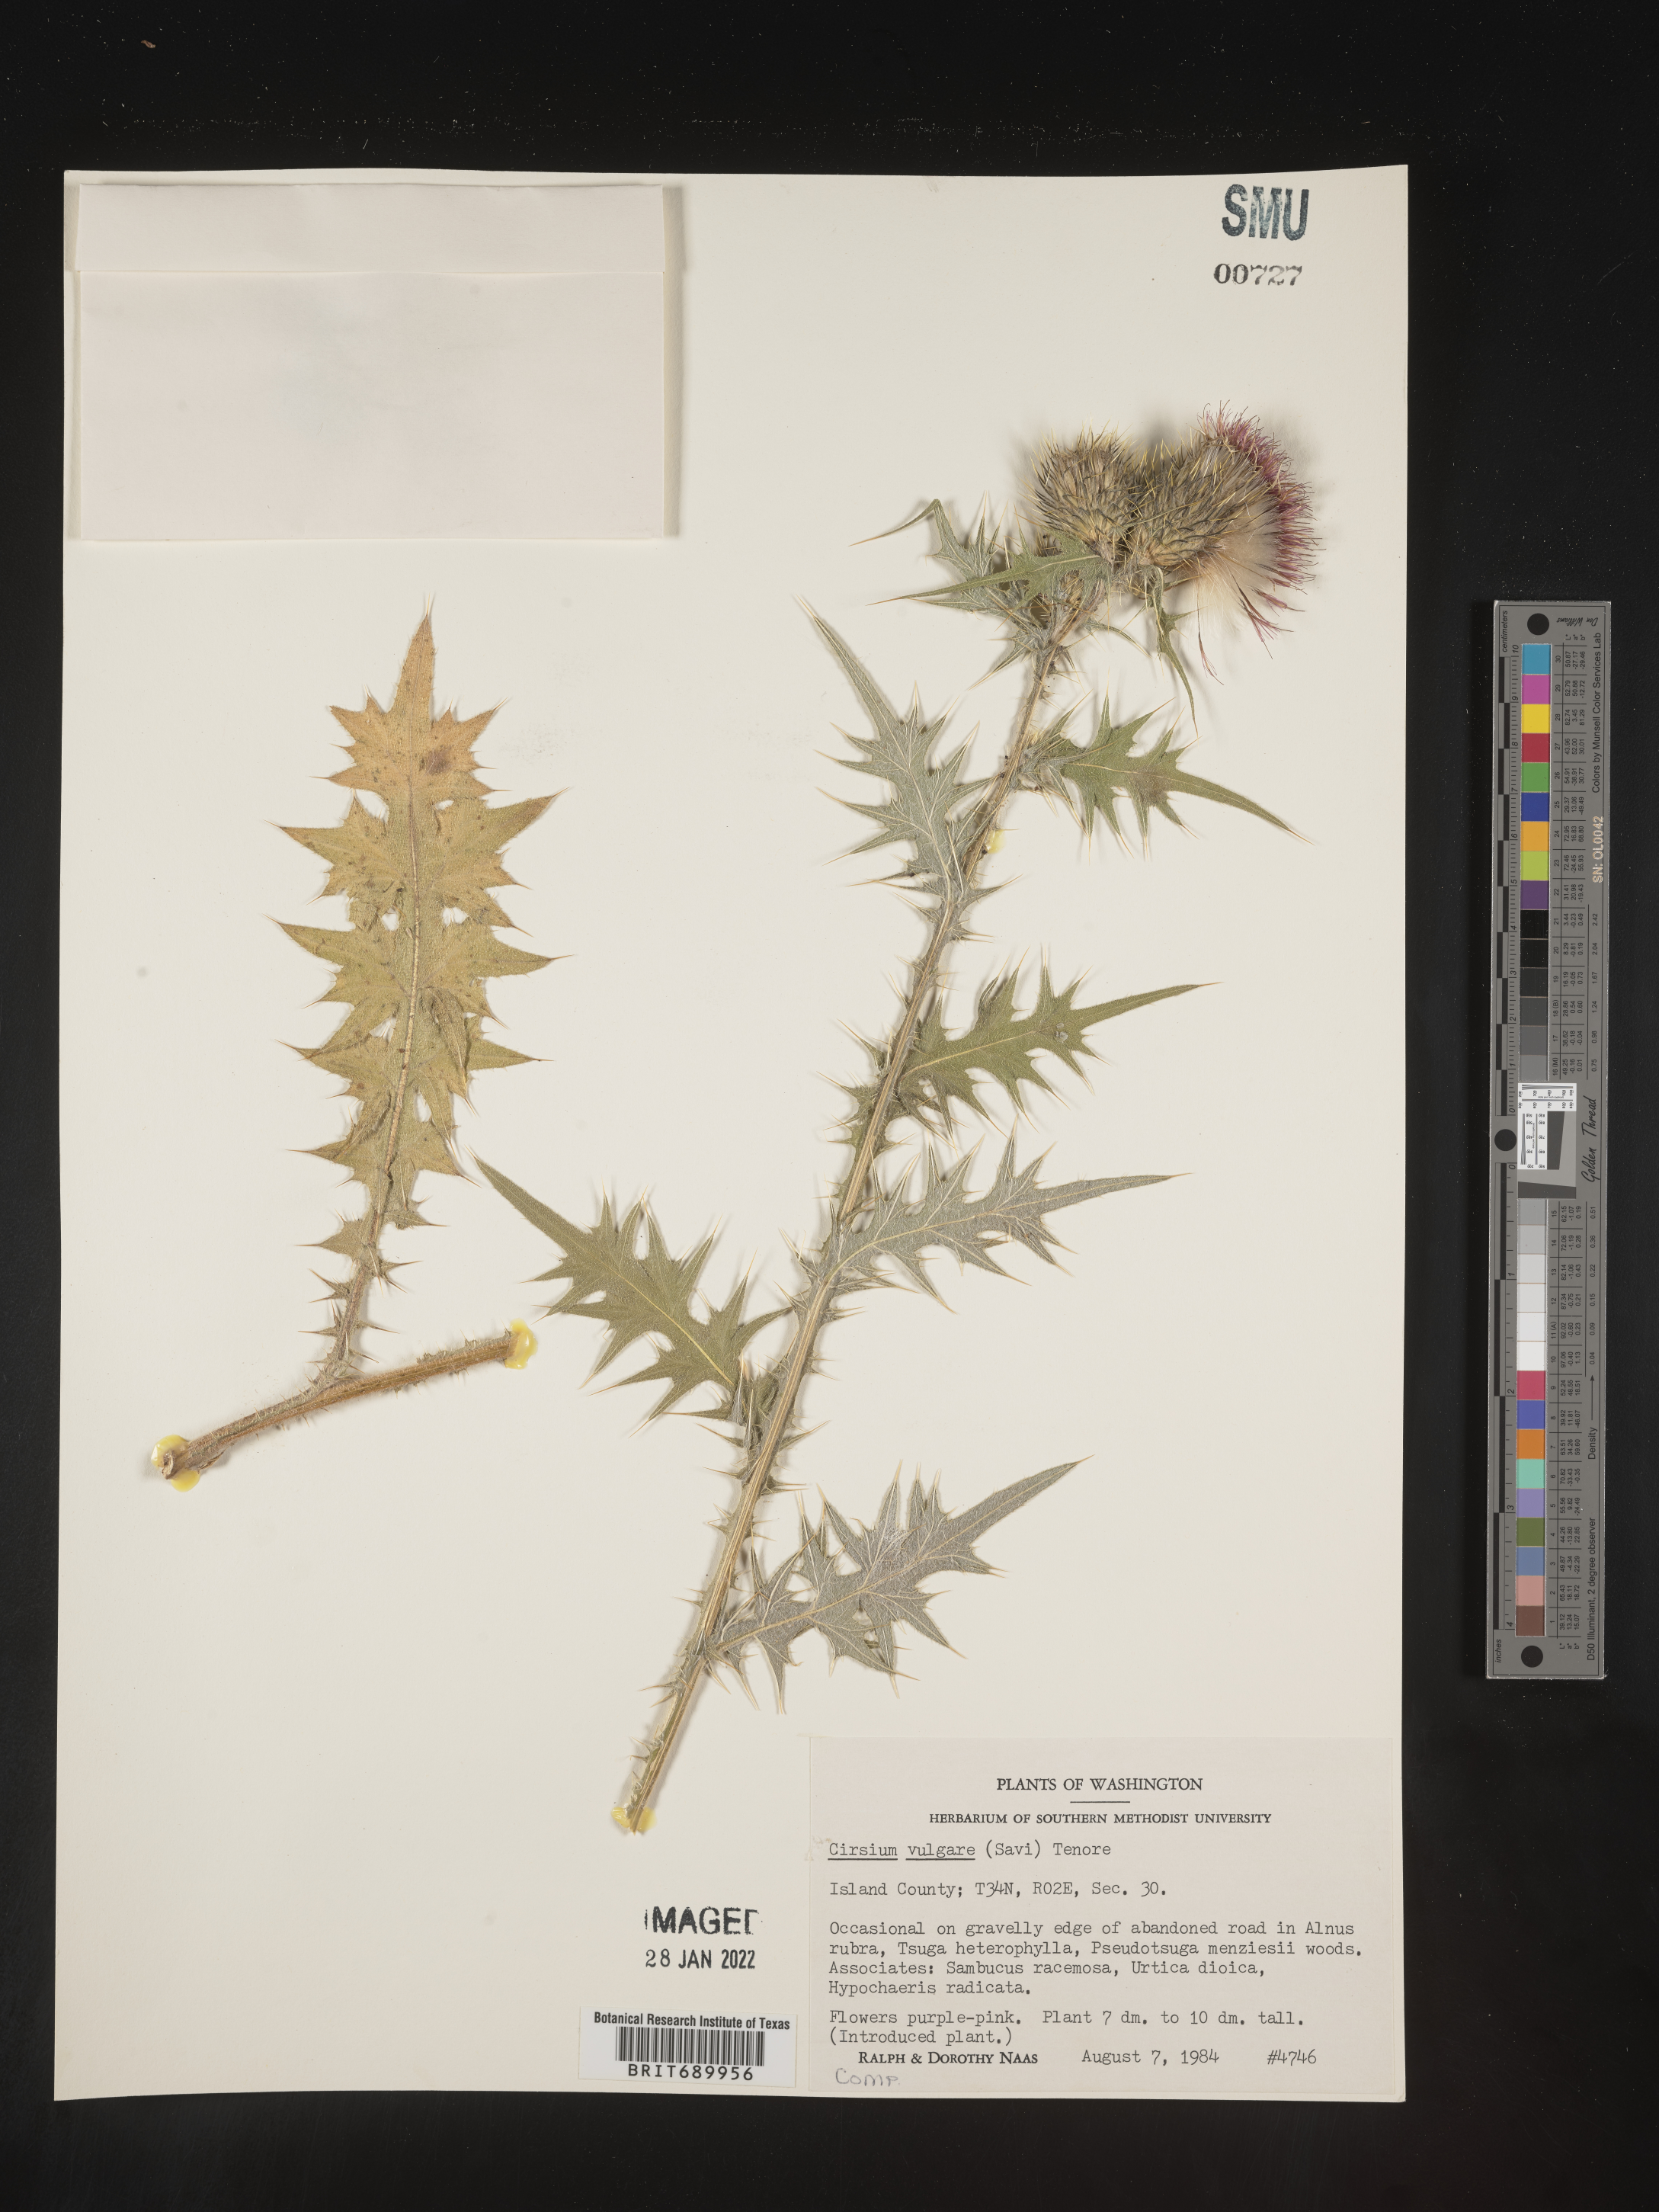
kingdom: Plantae
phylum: Tracheophyta
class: Magnoliopsida
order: Asterales
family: Asteraceae
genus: Cirsium
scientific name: Cirsium vulgare
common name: Bull thistle
